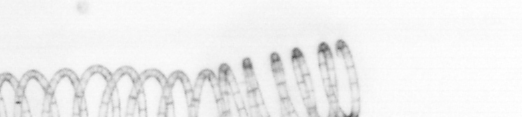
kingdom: Chromista
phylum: Ochrophyta
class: Bacillariophyceae
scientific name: Bacillariophyceae
